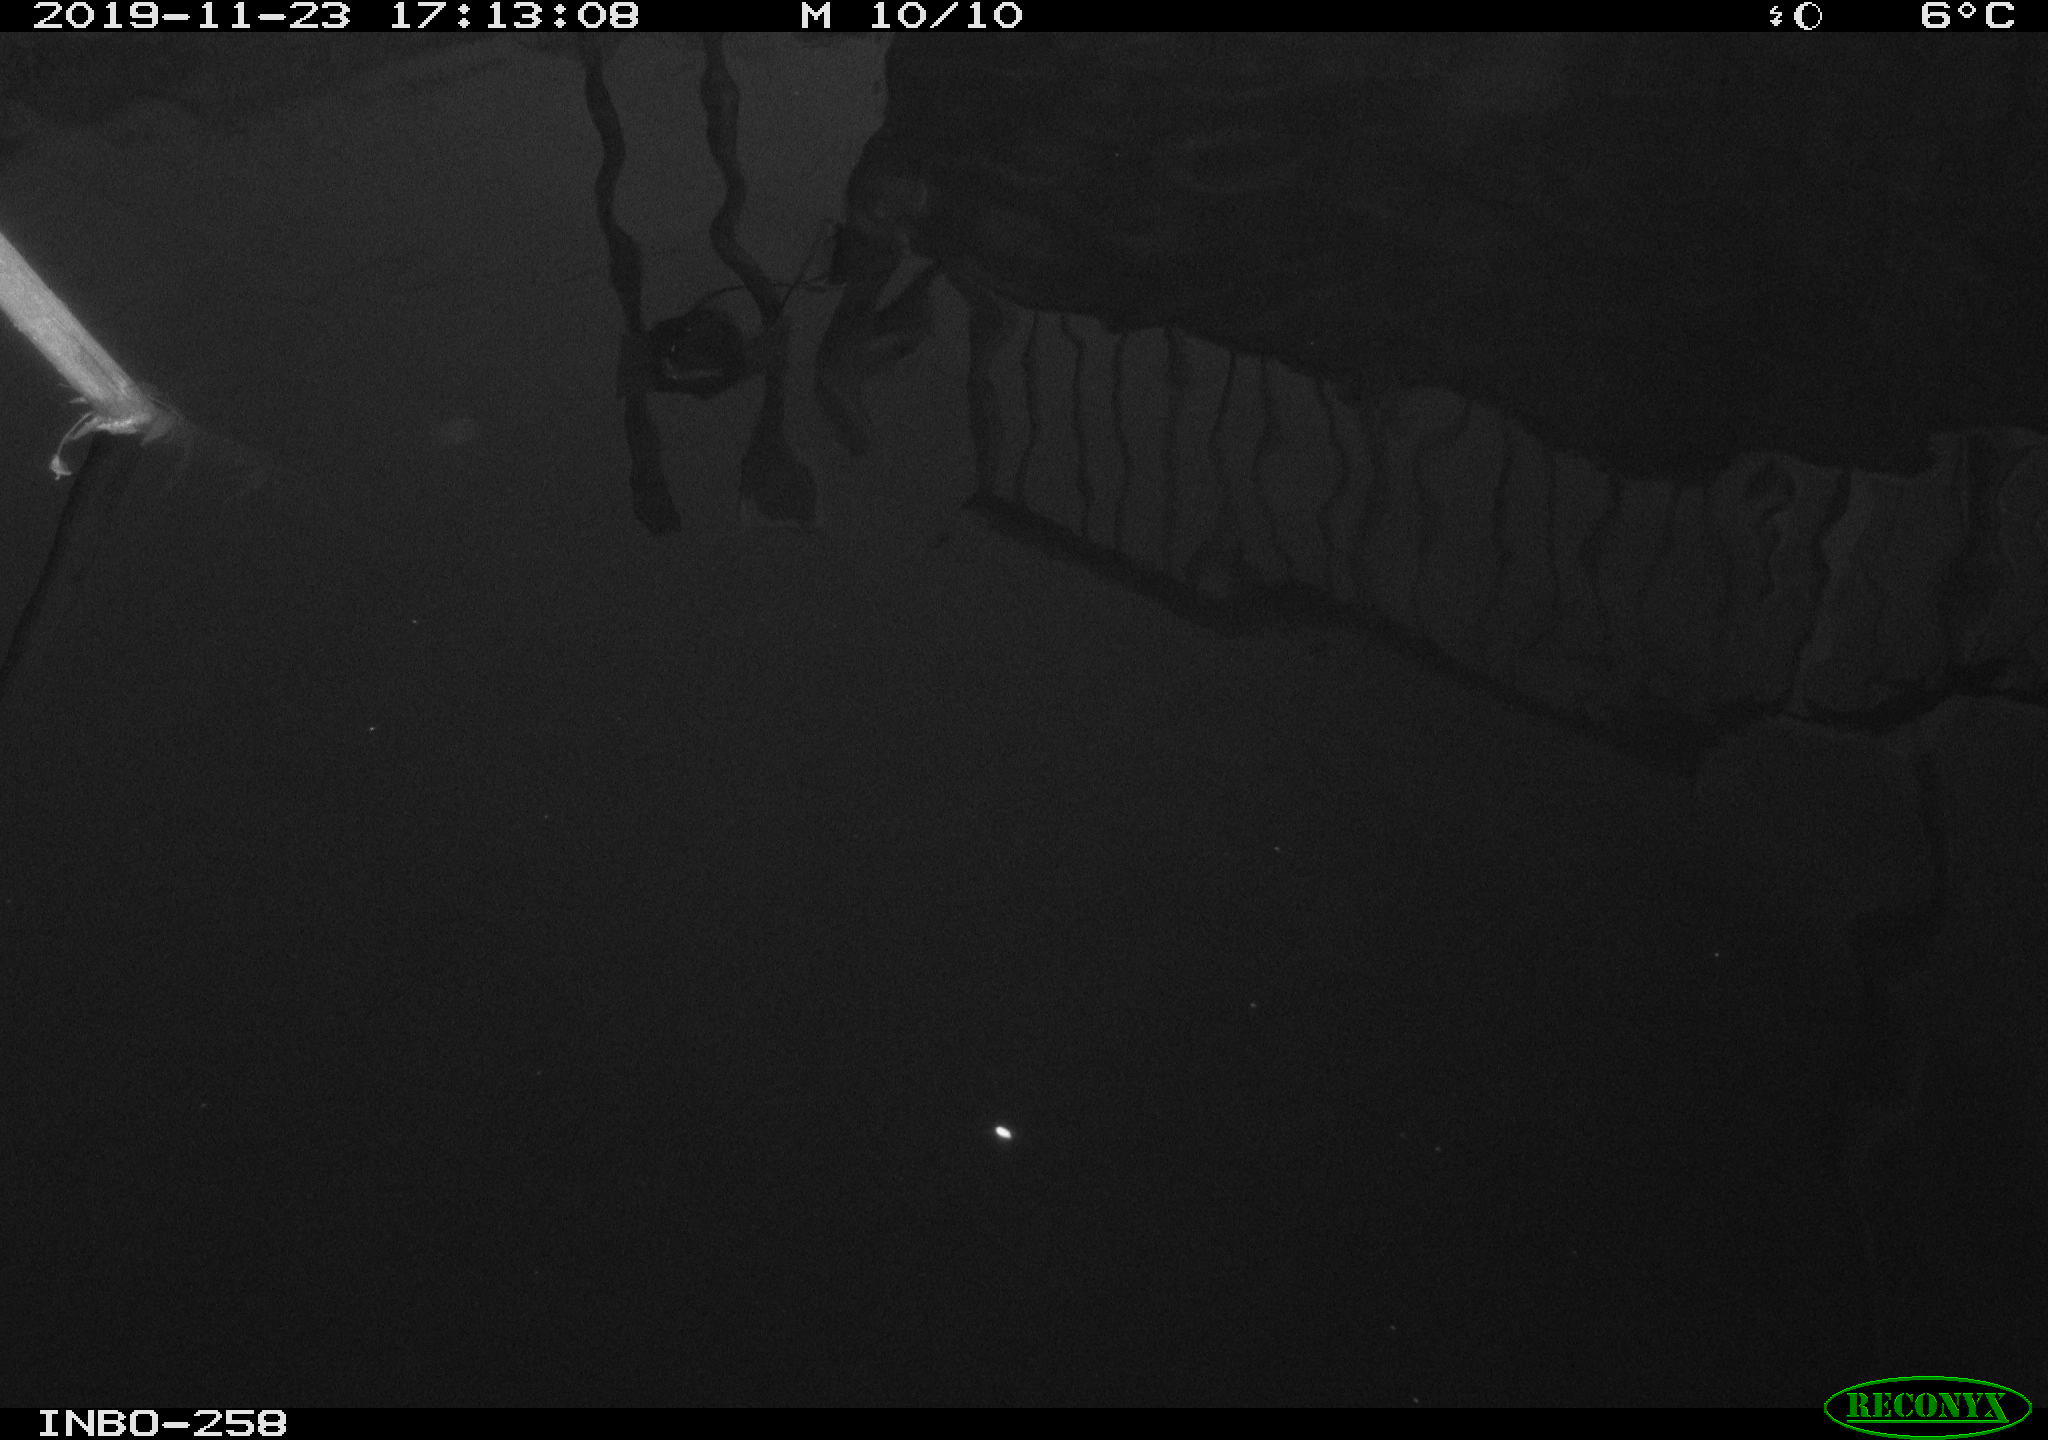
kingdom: Animalia
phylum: Chordata
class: Aves
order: Gruiformes
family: Rallidae
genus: Gallinula
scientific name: Gallinula chloropus
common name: Common moorhen
